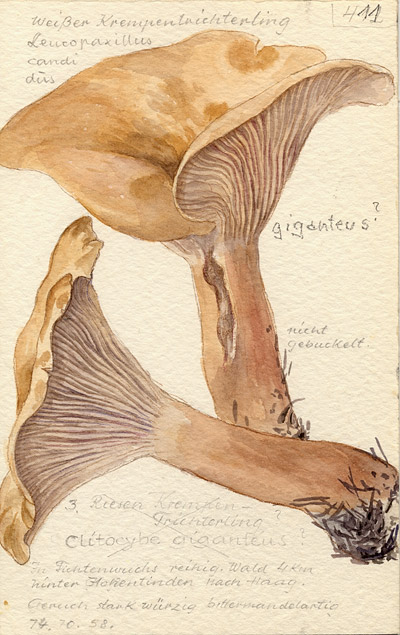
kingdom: Fungi
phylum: Basidiomycota
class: Agaricomycetes
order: Agaricales
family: Tricholomataceae
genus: Aspropaxillus
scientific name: Aspropaxillus candidus
